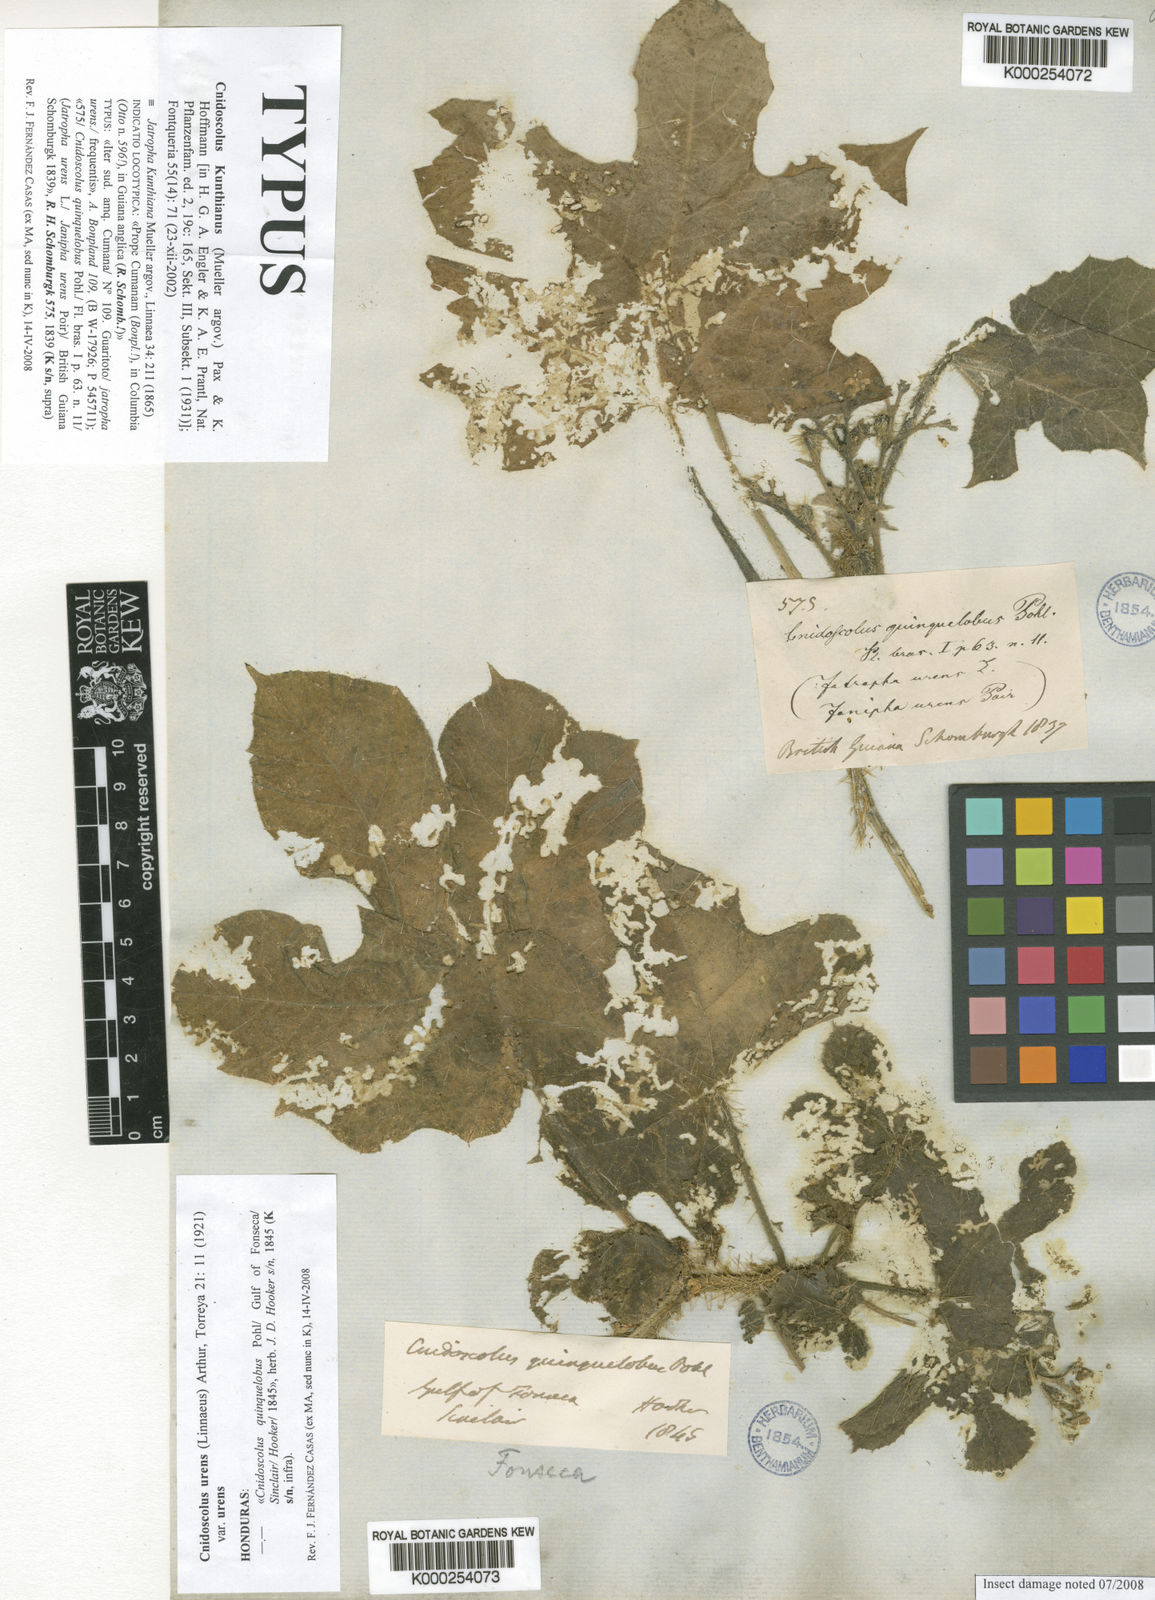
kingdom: Plantae
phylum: Tracheophyta
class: Magnoliopsida
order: Malpighiales
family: Euphorbiaceae
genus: Cnidoscolus
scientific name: Cnidoscolus
